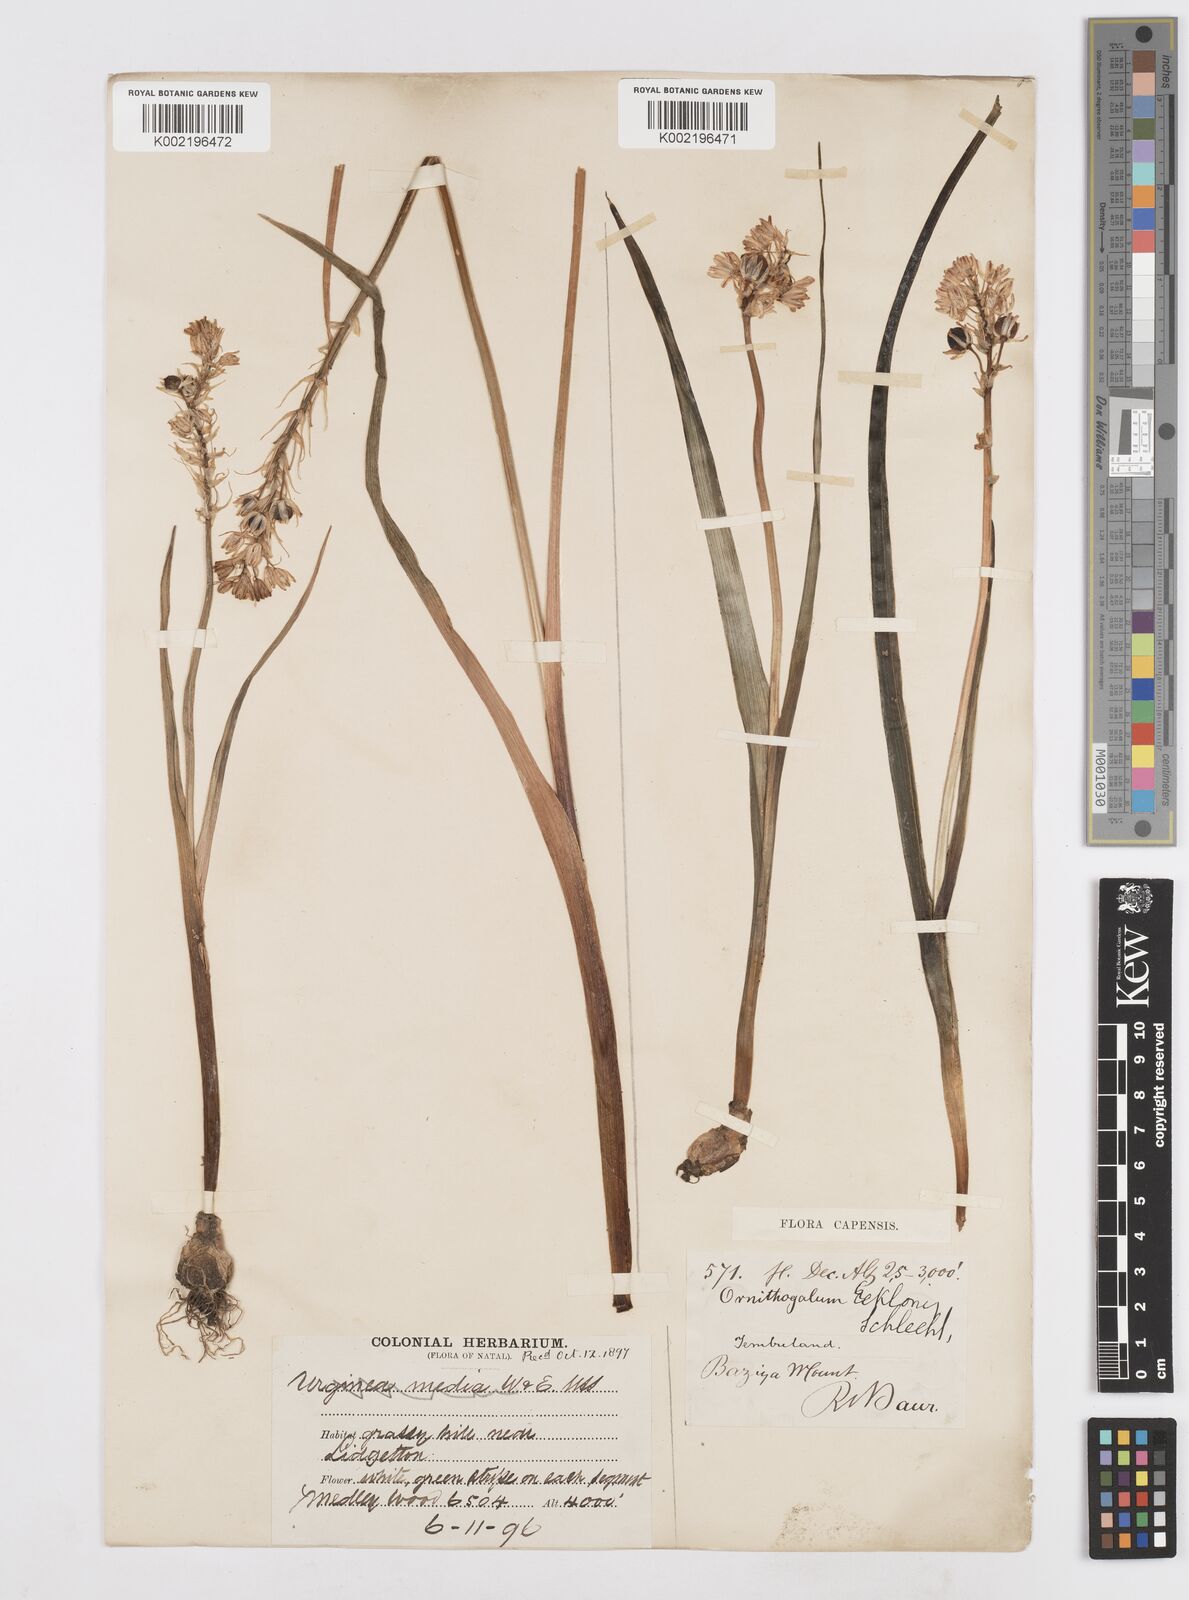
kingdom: Plantae
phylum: Tracheophyta
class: Liliopsida
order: Asparagales
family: Asparagaceae
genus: Albuca
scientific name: Albuca virens
